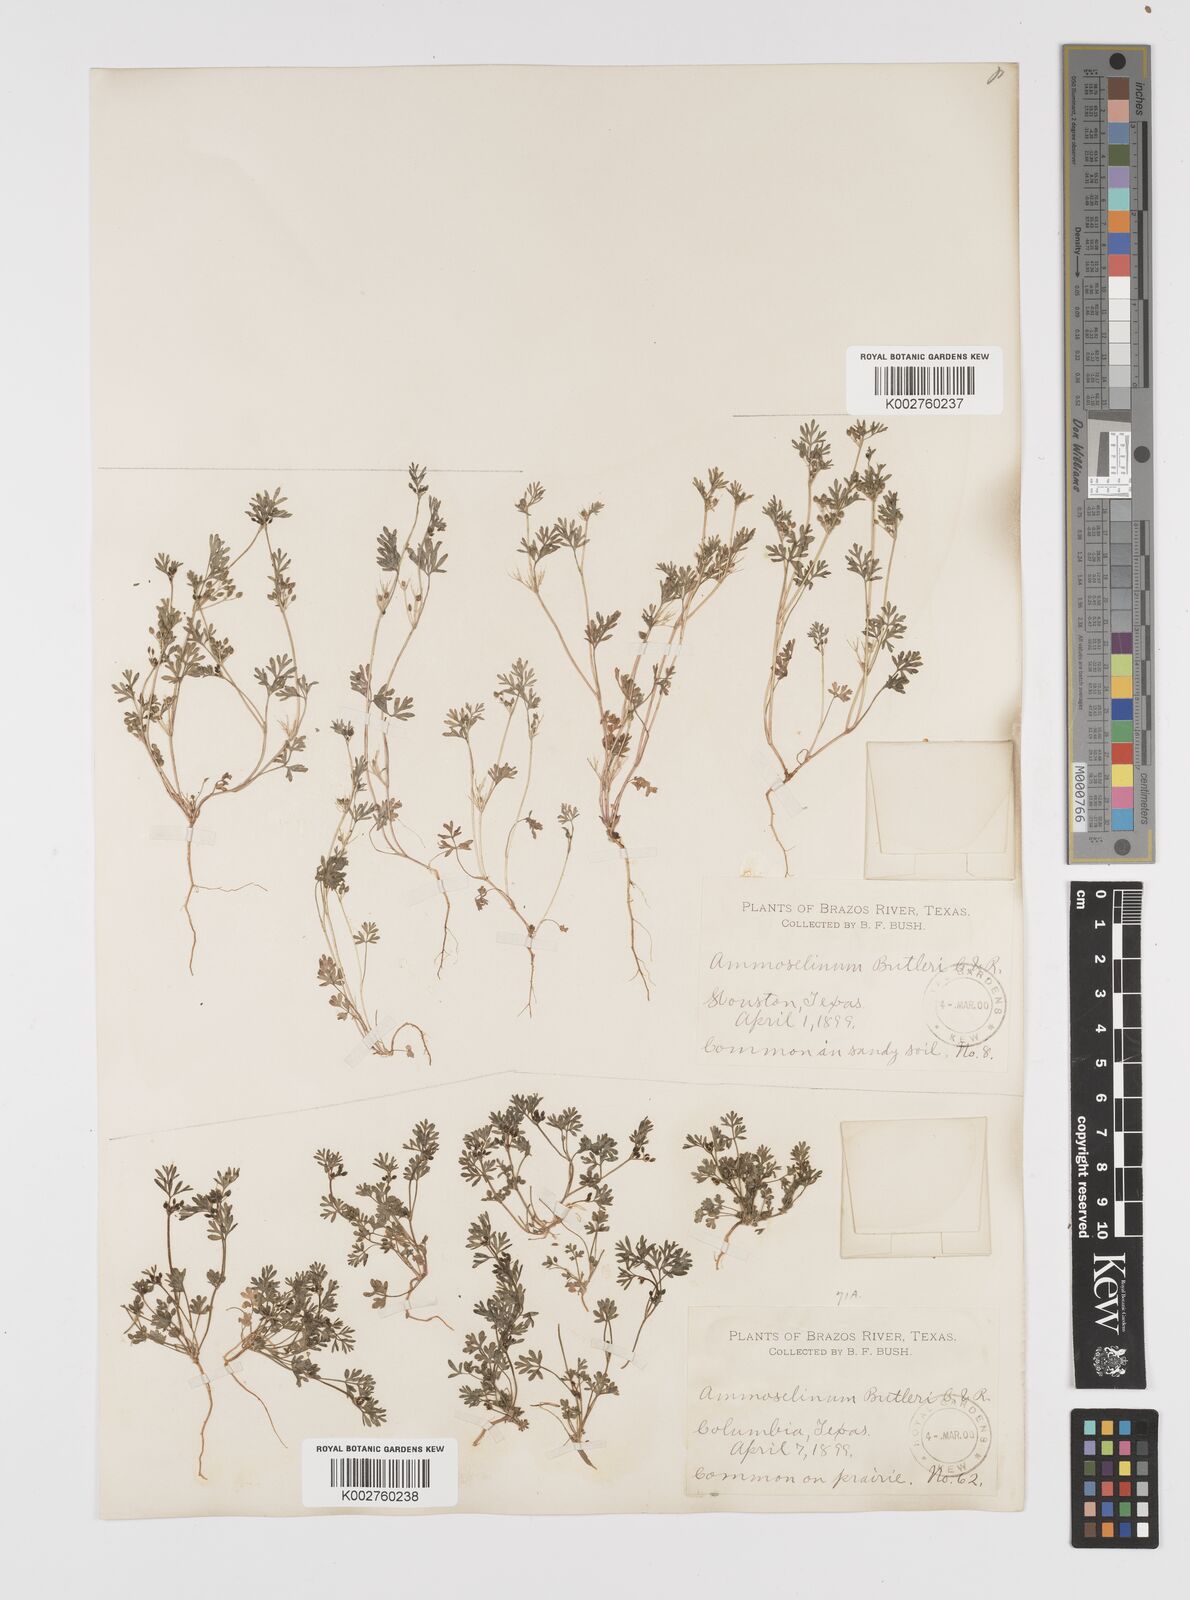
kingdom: Plantae
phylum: Tracheophyta
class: Magnoliopsida
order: Apiales
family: Apiaceae
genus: Ammoselinum
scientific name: Ammoselinum butleri
